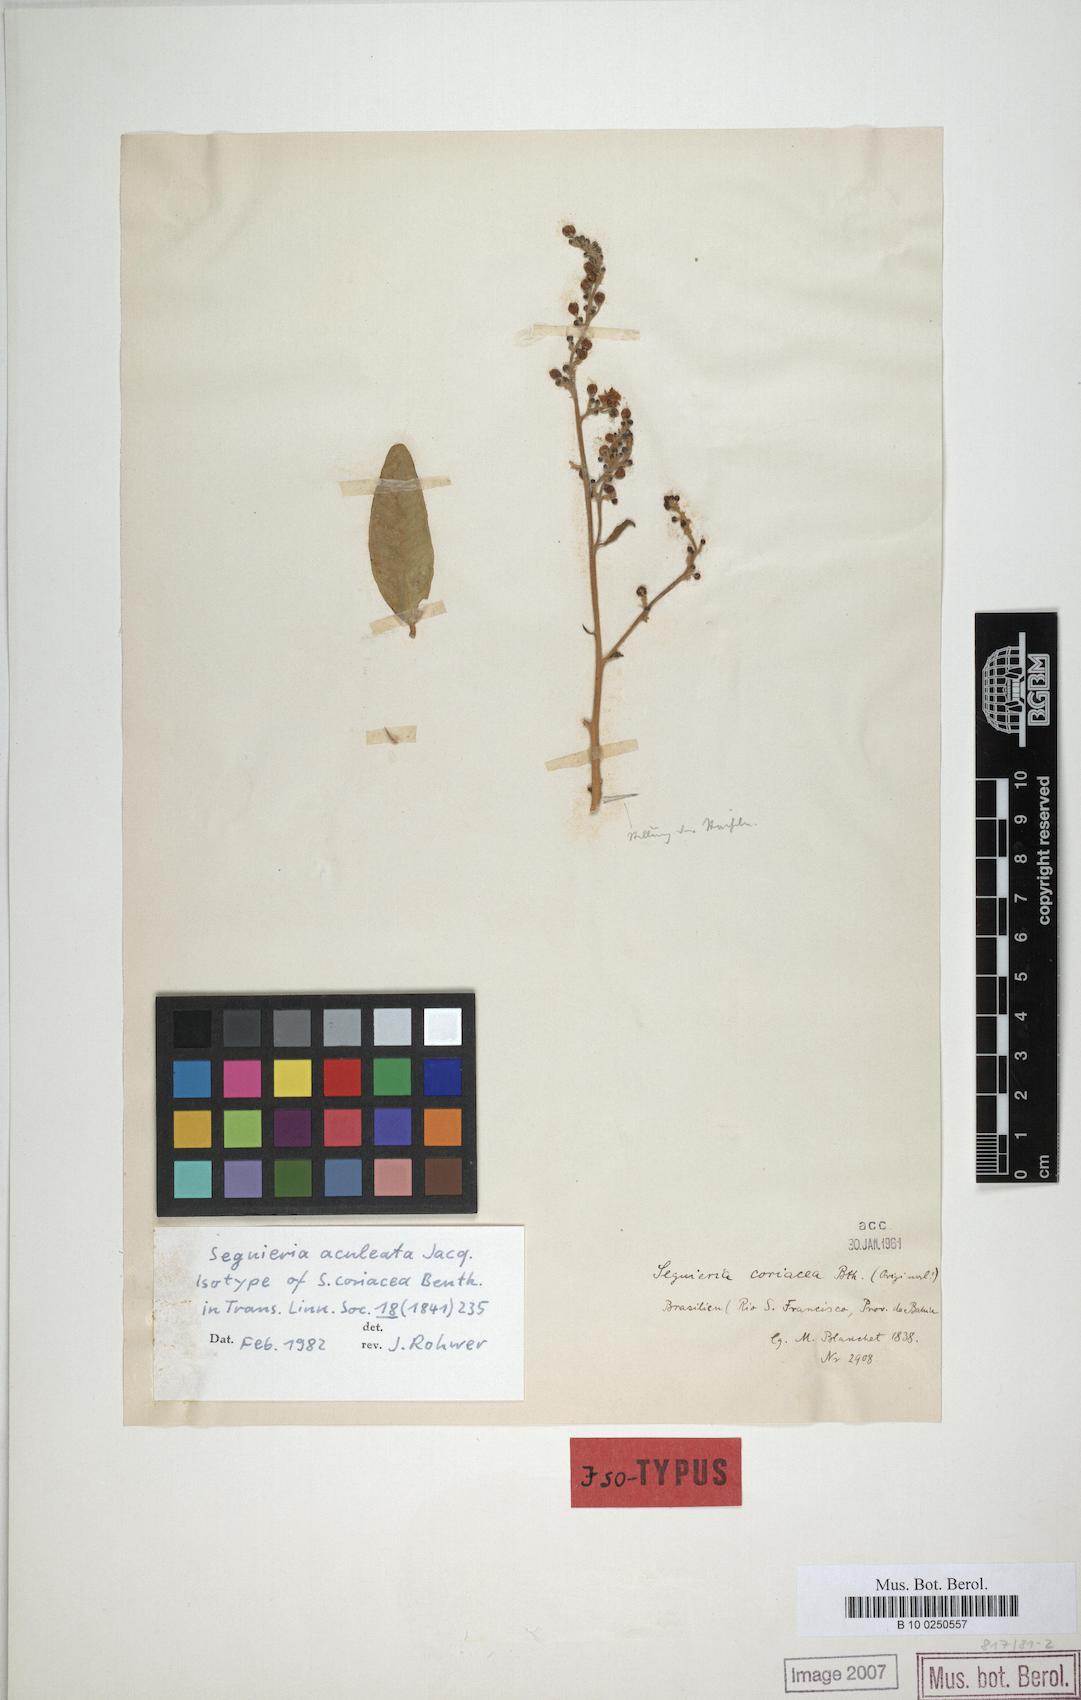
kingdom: Plantae
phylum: Tracheophyta
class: Magnoliopsida
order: Caryophyllales
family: Phytolaccaceae
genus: Seguieria
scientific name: Seguieria aculeata
